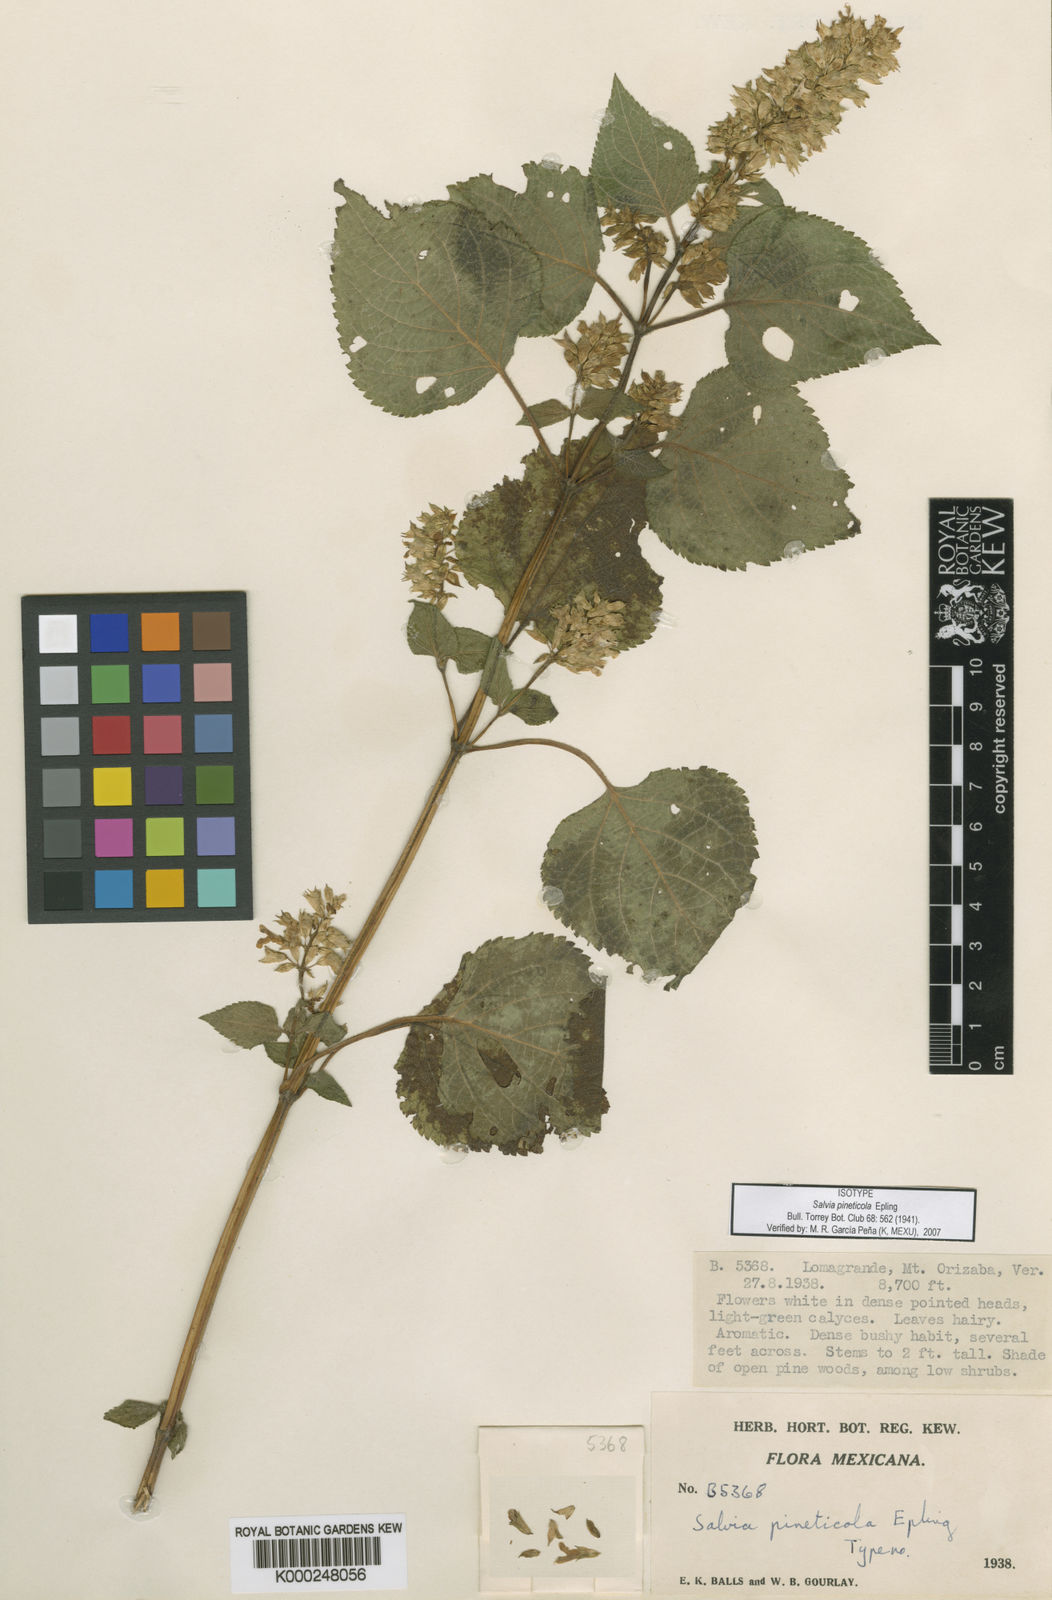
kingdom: Plantae
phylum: Tracheophyta
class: Magnoliopsida
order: Lamiales
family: Lamiaceae
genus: Salvia
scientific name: Salvia pineticola
